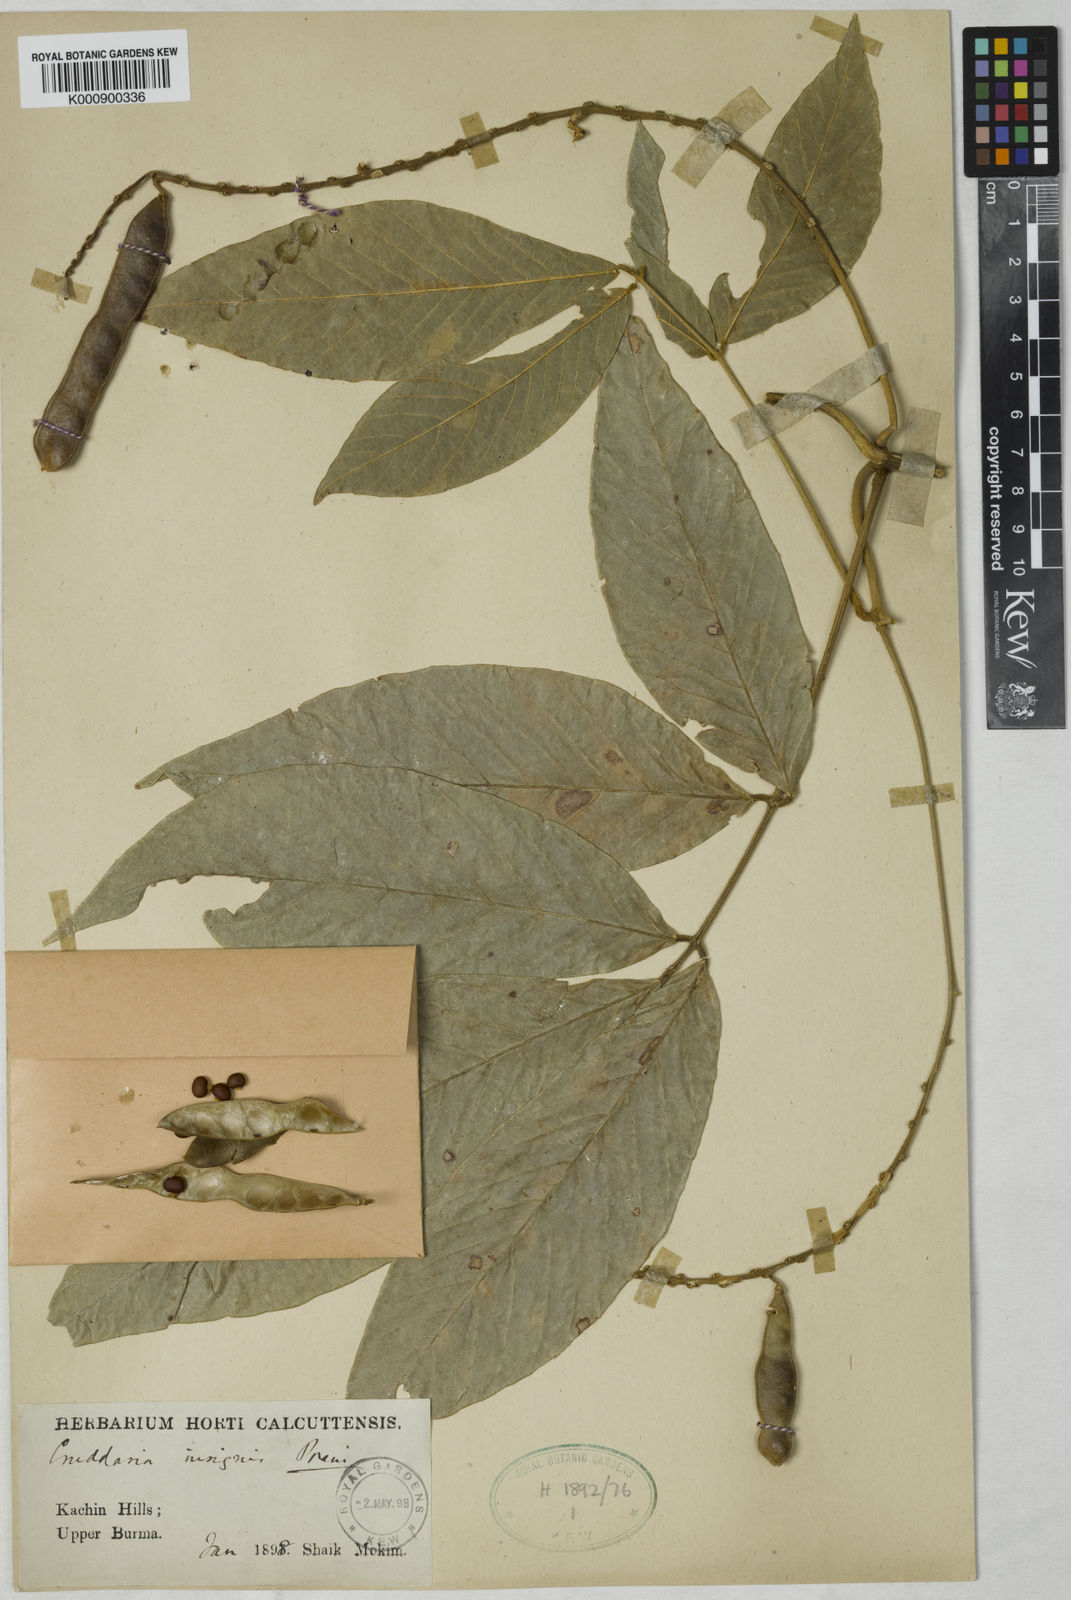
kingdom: Plantae
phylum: Tracheophyta
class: Magnoliopsida
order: Fabales
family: Fabaceae
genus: Cruddasia
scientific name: Cruddasia insignis
